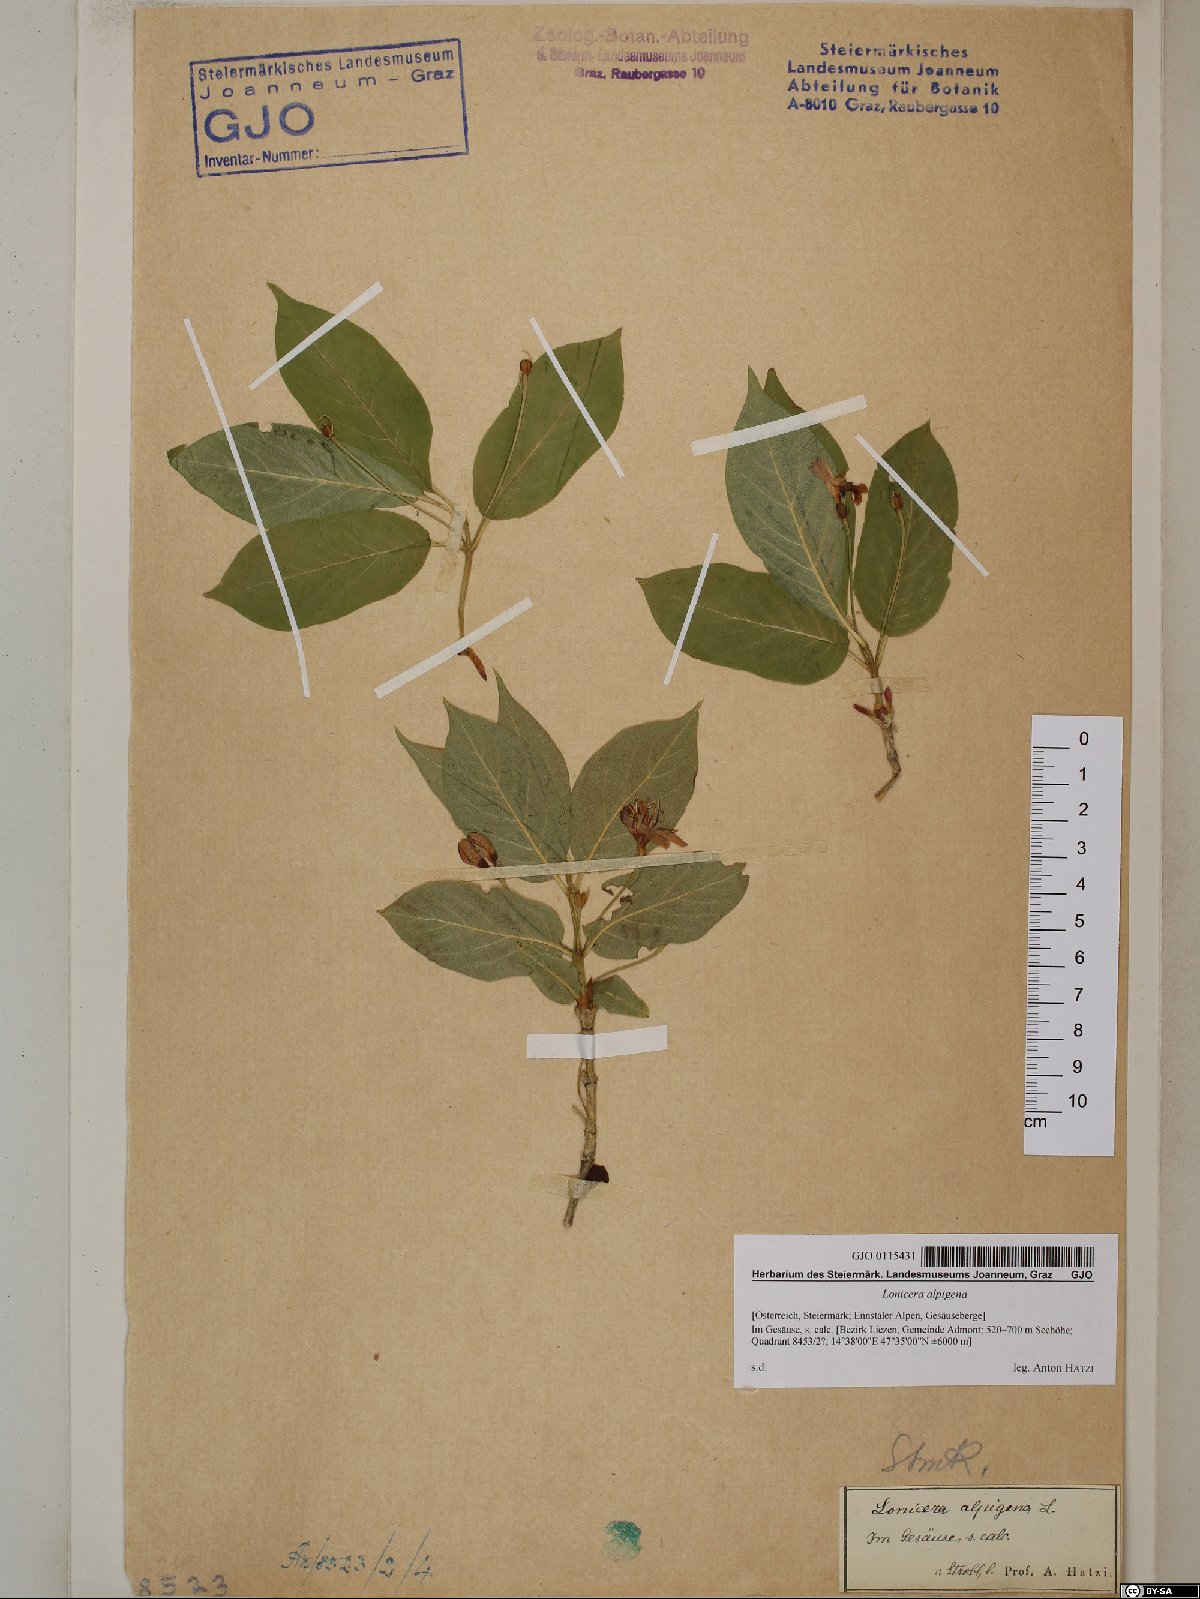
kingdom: Plantae
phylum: Tracheophyta
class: Magnoliopsida
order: Dipsacales
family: Caprifoliaceae
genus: Lonicera
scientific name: Lonicera alpigena
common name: Alpine honeysuckle
